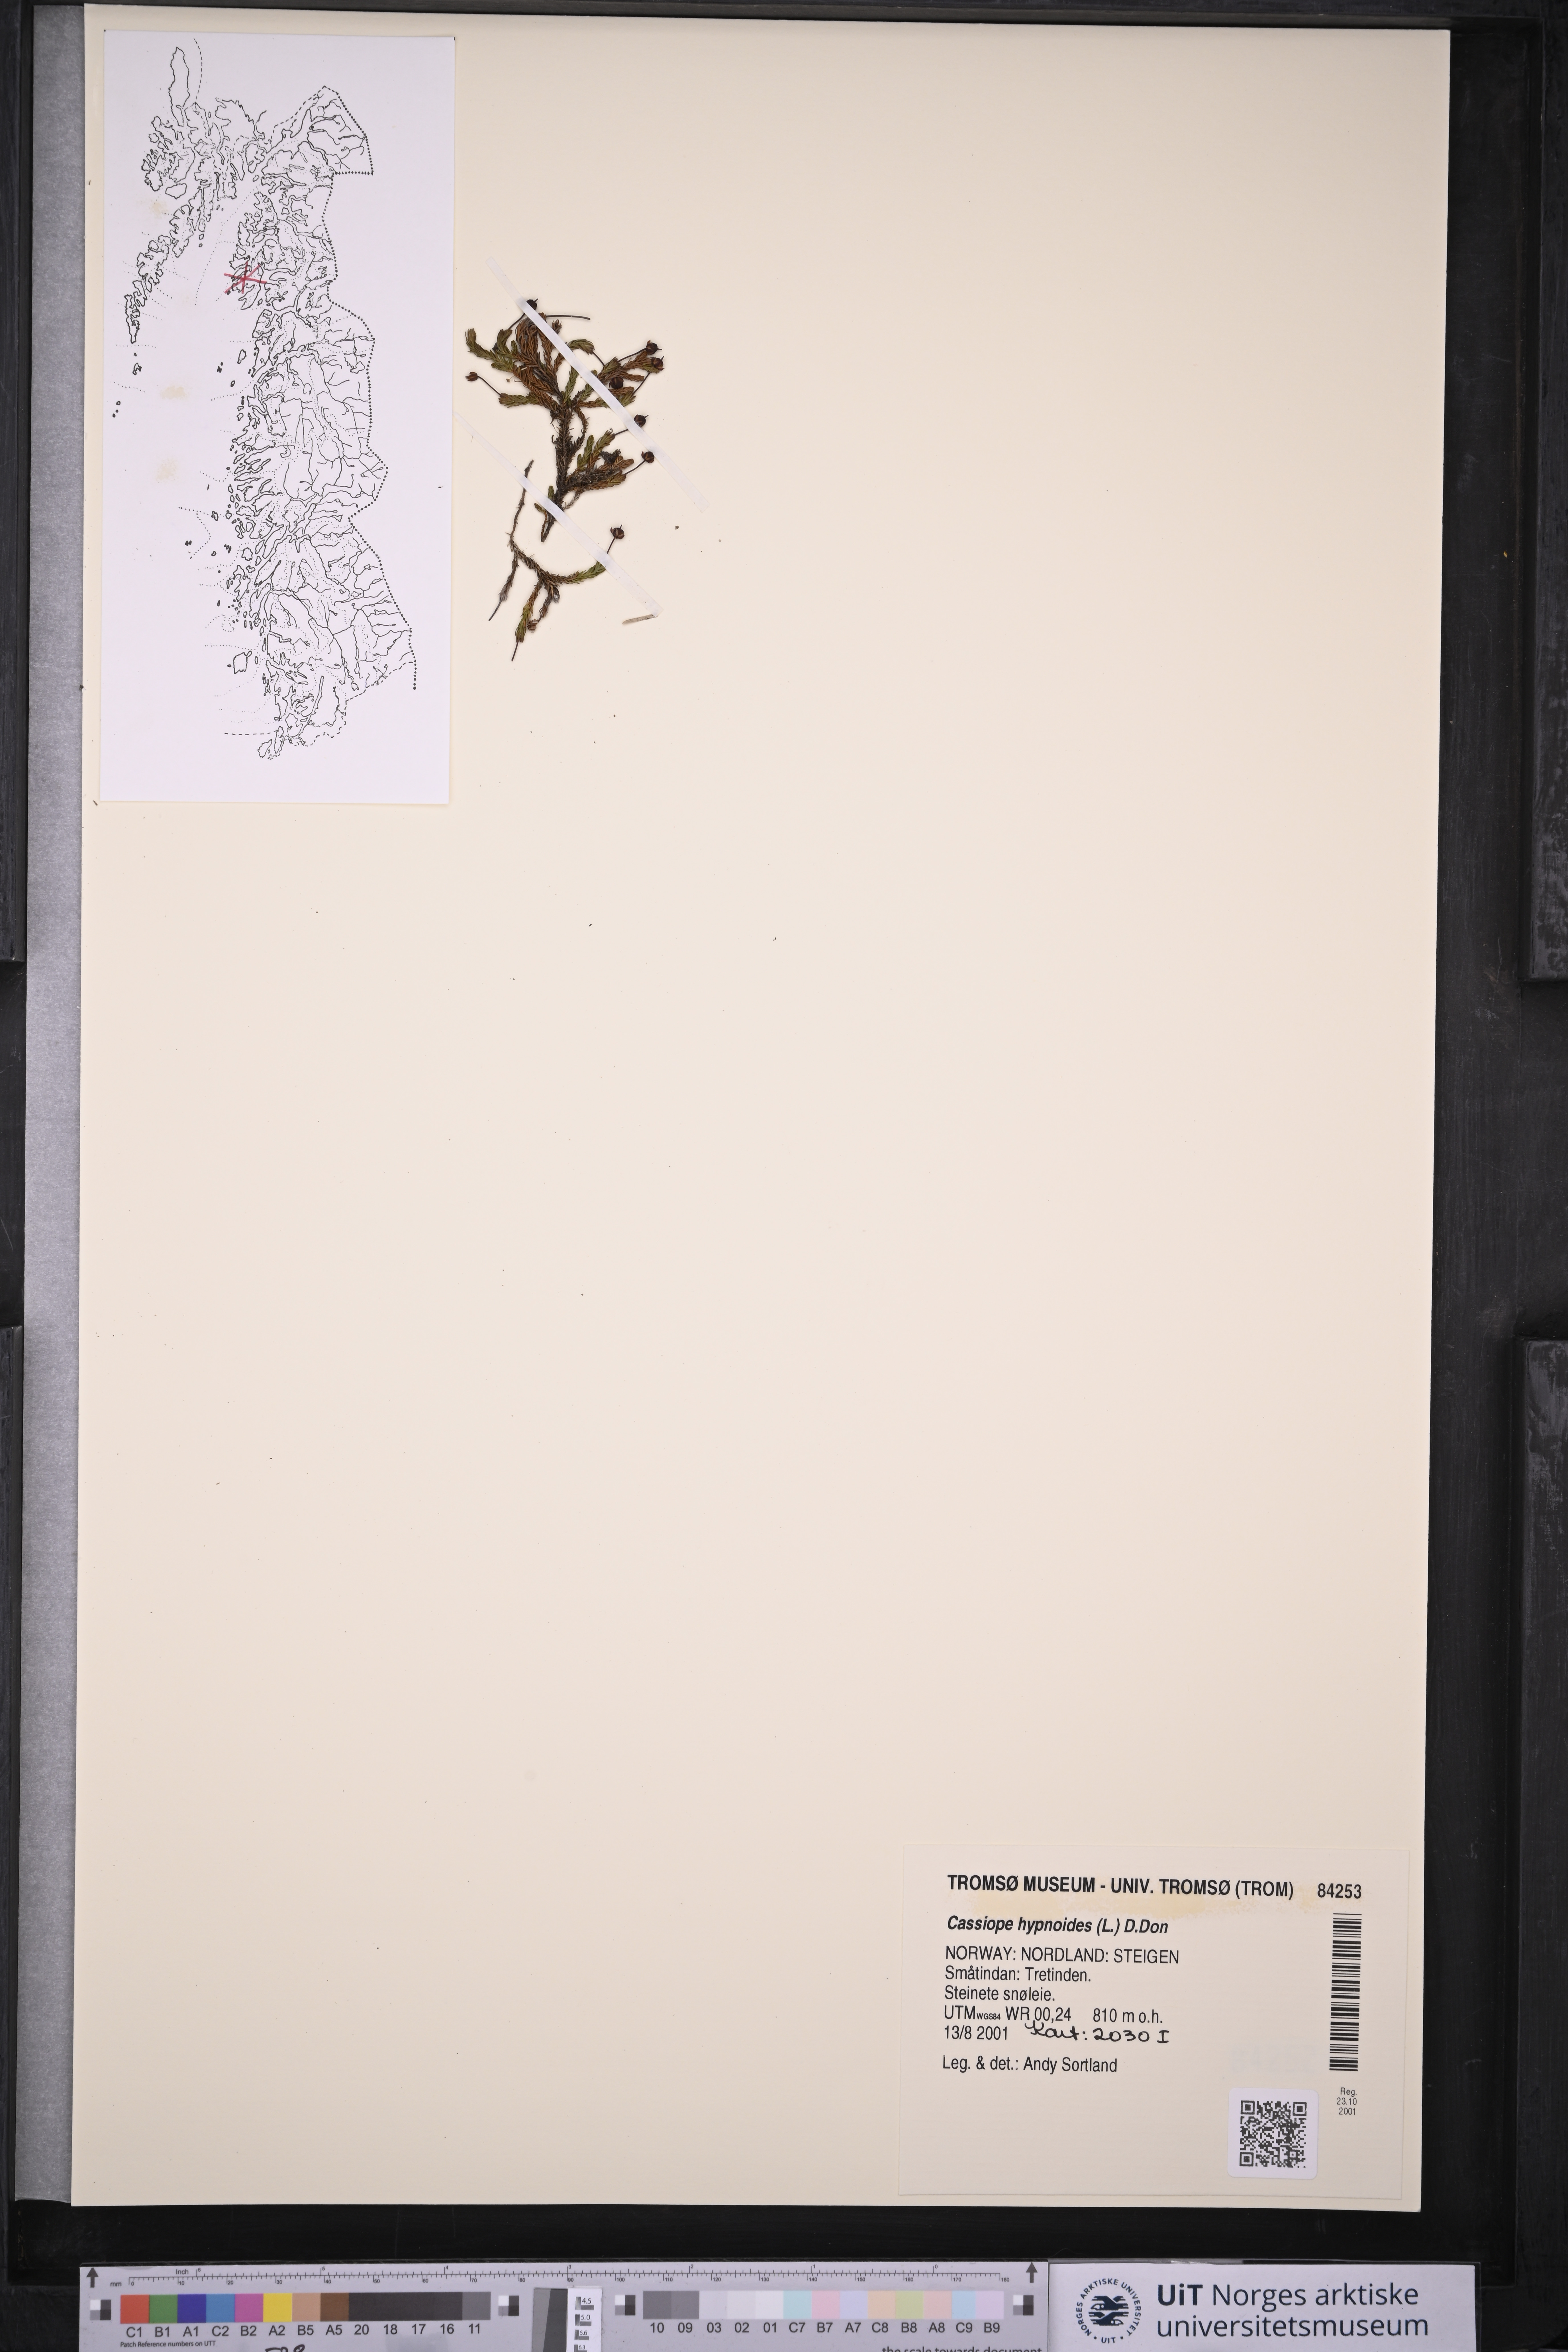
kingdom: Plantae
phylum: Tracheophyta
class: Magnoliopsida
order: Ericales
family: Ericaceae
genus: Harrimanella
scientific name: Harrimanella hypnoides
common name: Moss bell heather
